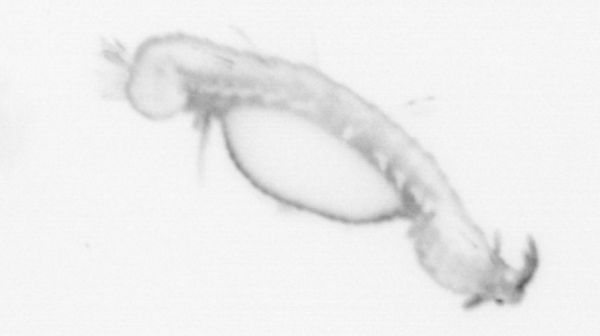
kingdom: Animalia
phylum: Annelida
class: Polychaeta
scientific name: Polychaeta
